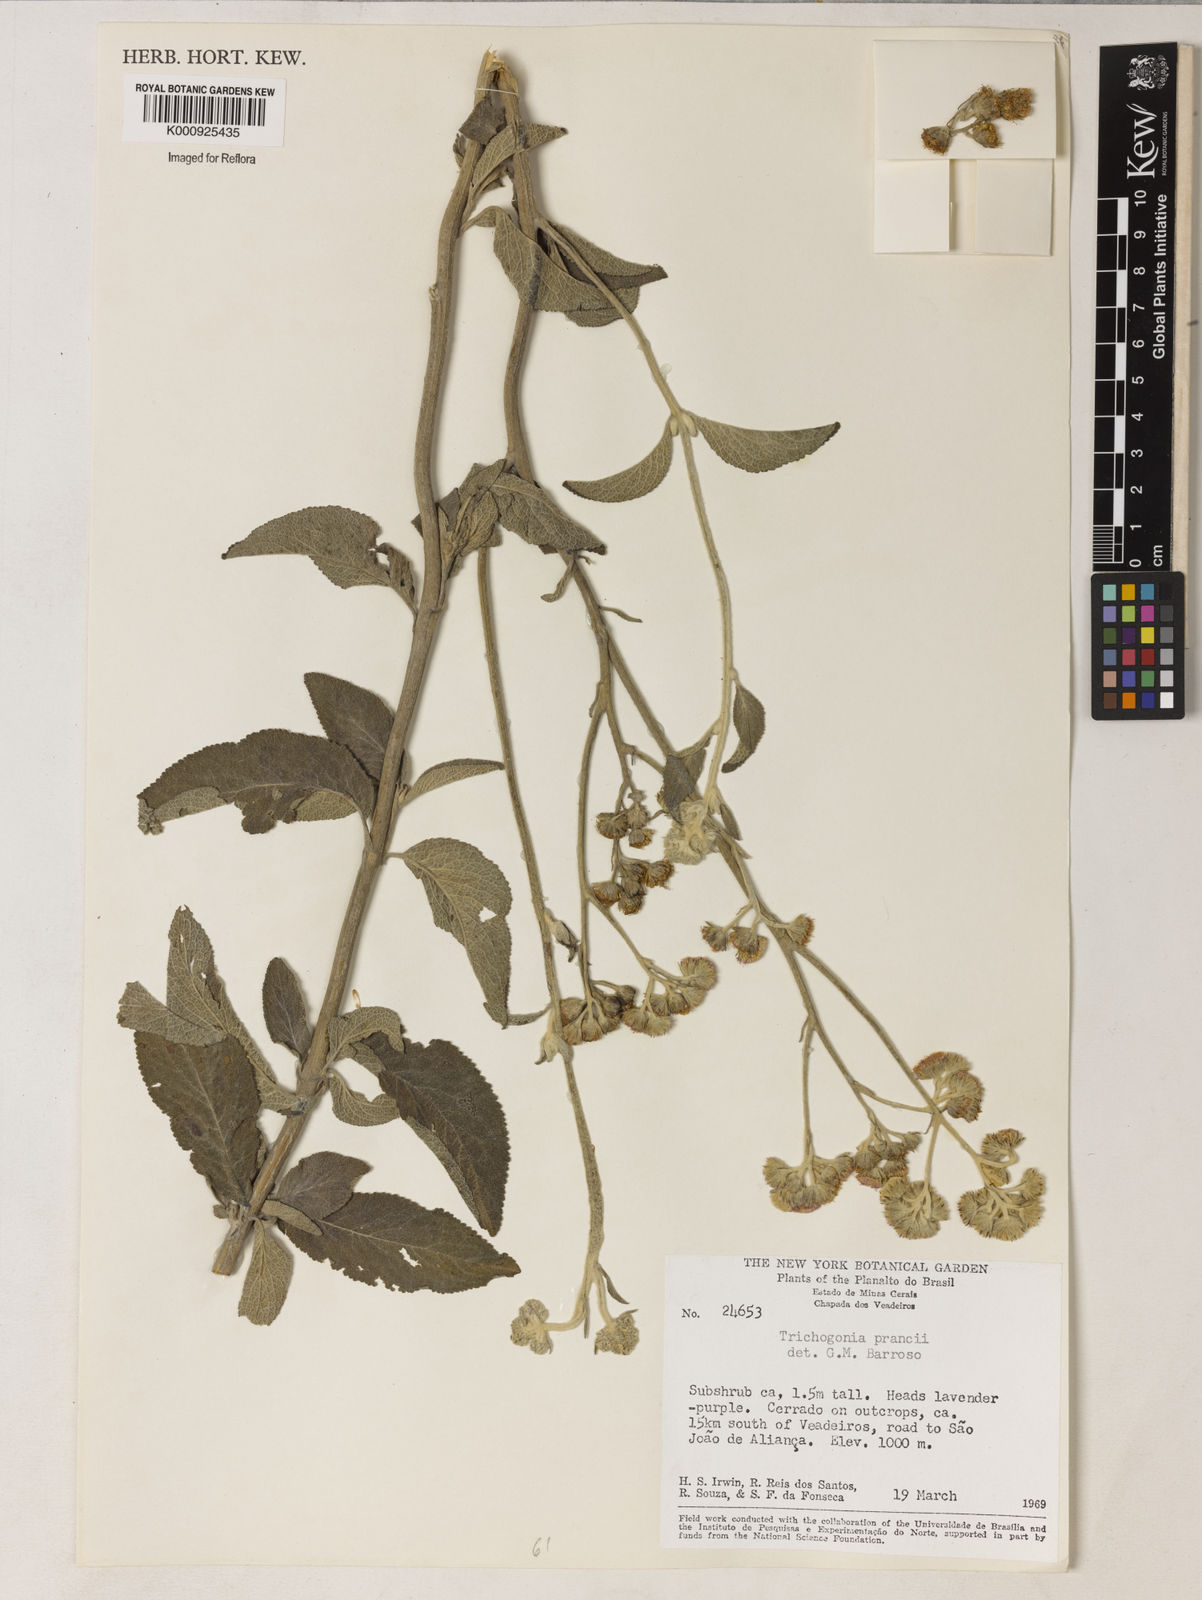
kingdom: Plantae
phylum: Tracheophyta
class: Magnoliopsida
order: Asterales
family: Asteraceae
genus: Trichogonia
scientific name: Trichogonia prancei
